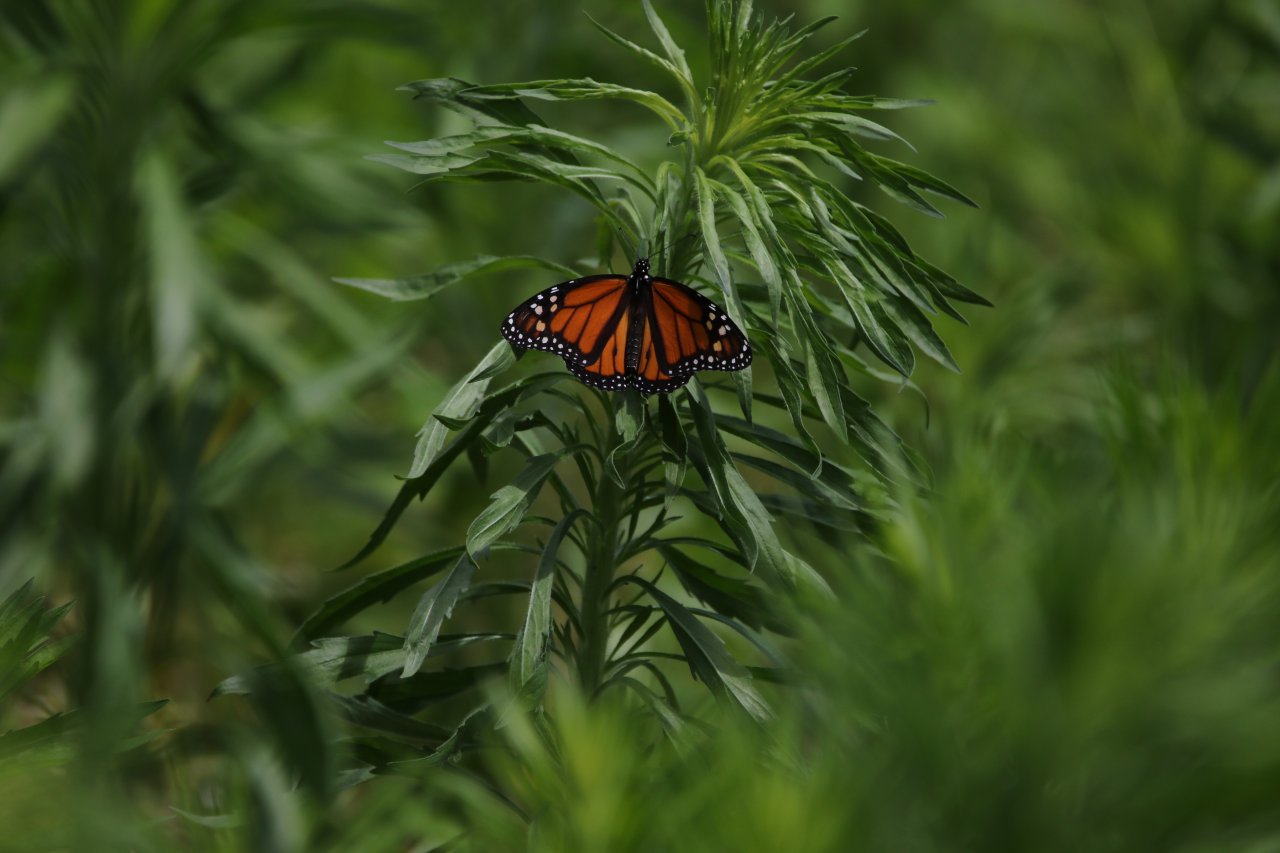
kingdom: Animalia
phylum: Arthropoda
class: Insecta
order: Lepidoptera
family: Nymphalidae
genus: Danaus
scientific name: Danaus plexippus
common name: Monarch
